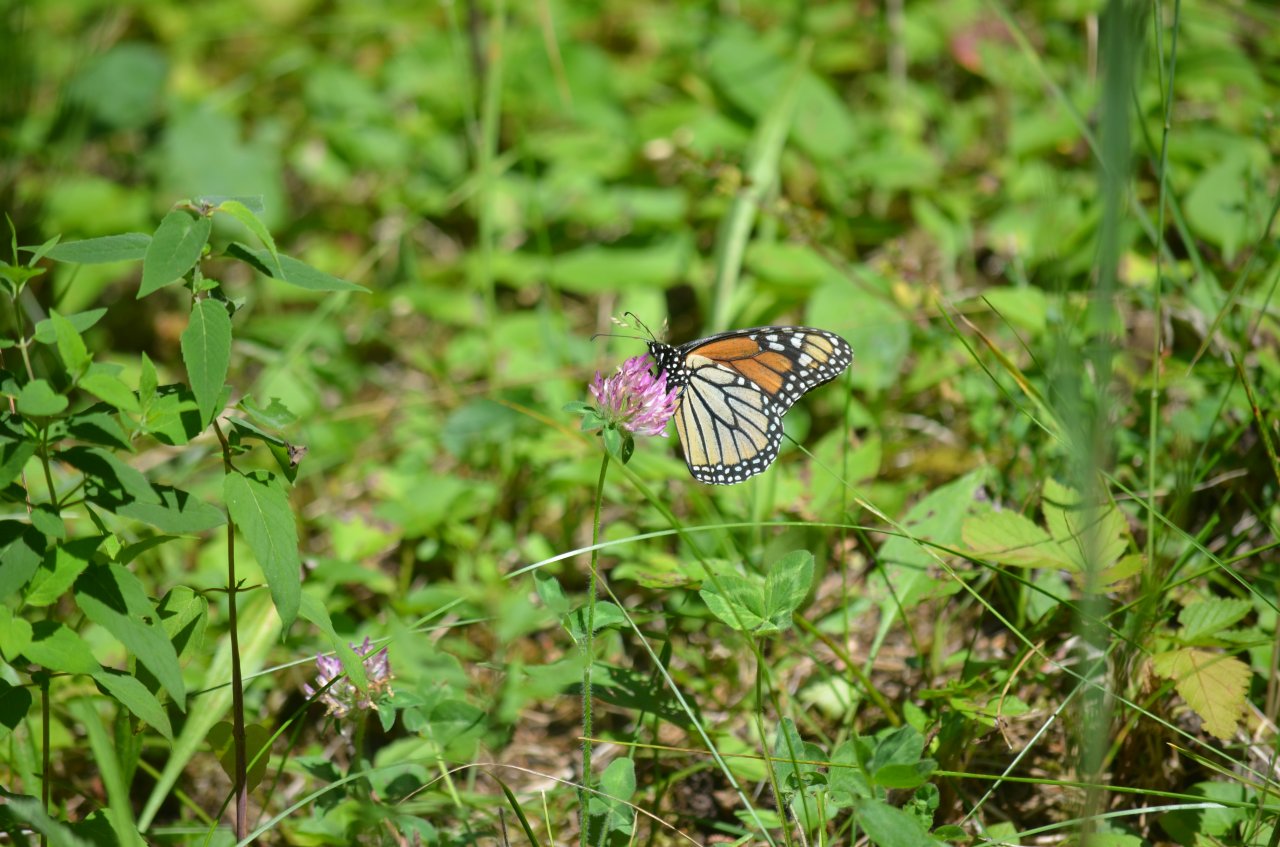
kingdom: Animalia
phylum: Arthropoda
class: Insecta
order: Lepidoptera
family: Nymphalidae
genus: Danaus
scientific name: Danaus plexippus
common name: Monarch
